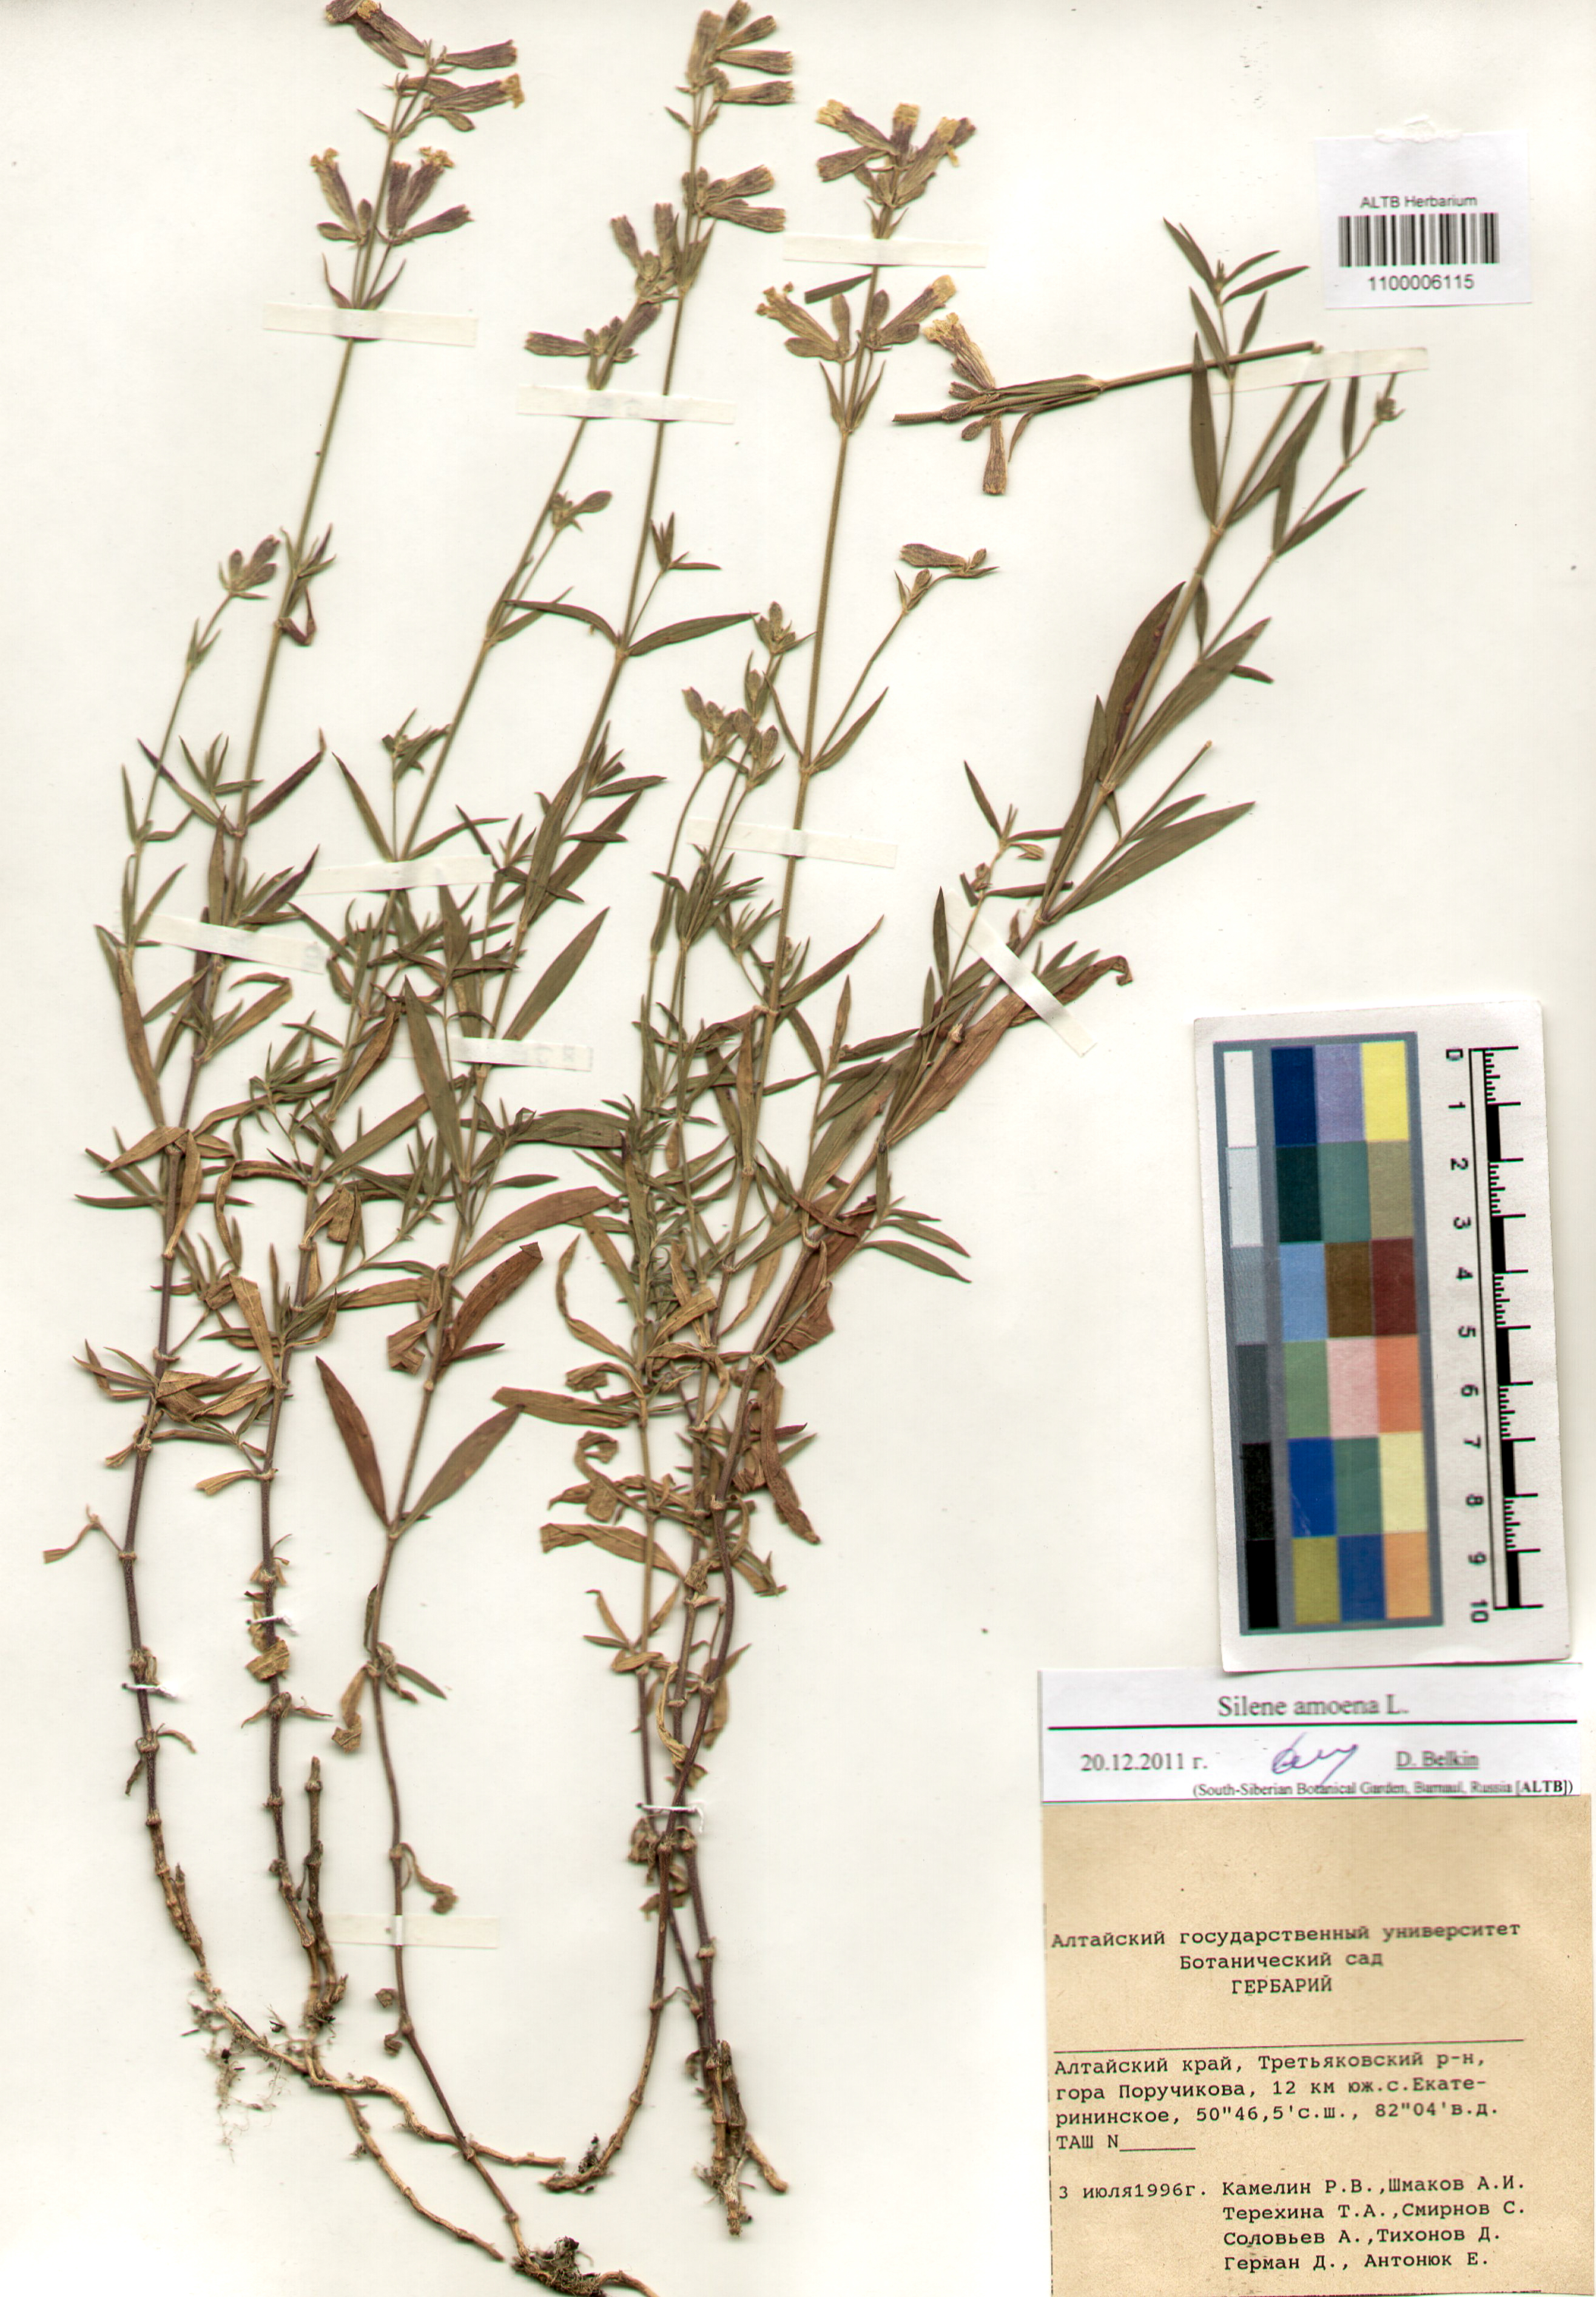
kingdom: Plantae
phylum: Tracheophyta
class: Magnoliopsida
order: Caryophyllales
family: Caryophyllaceae
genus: Silene
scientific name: Silene amoena
